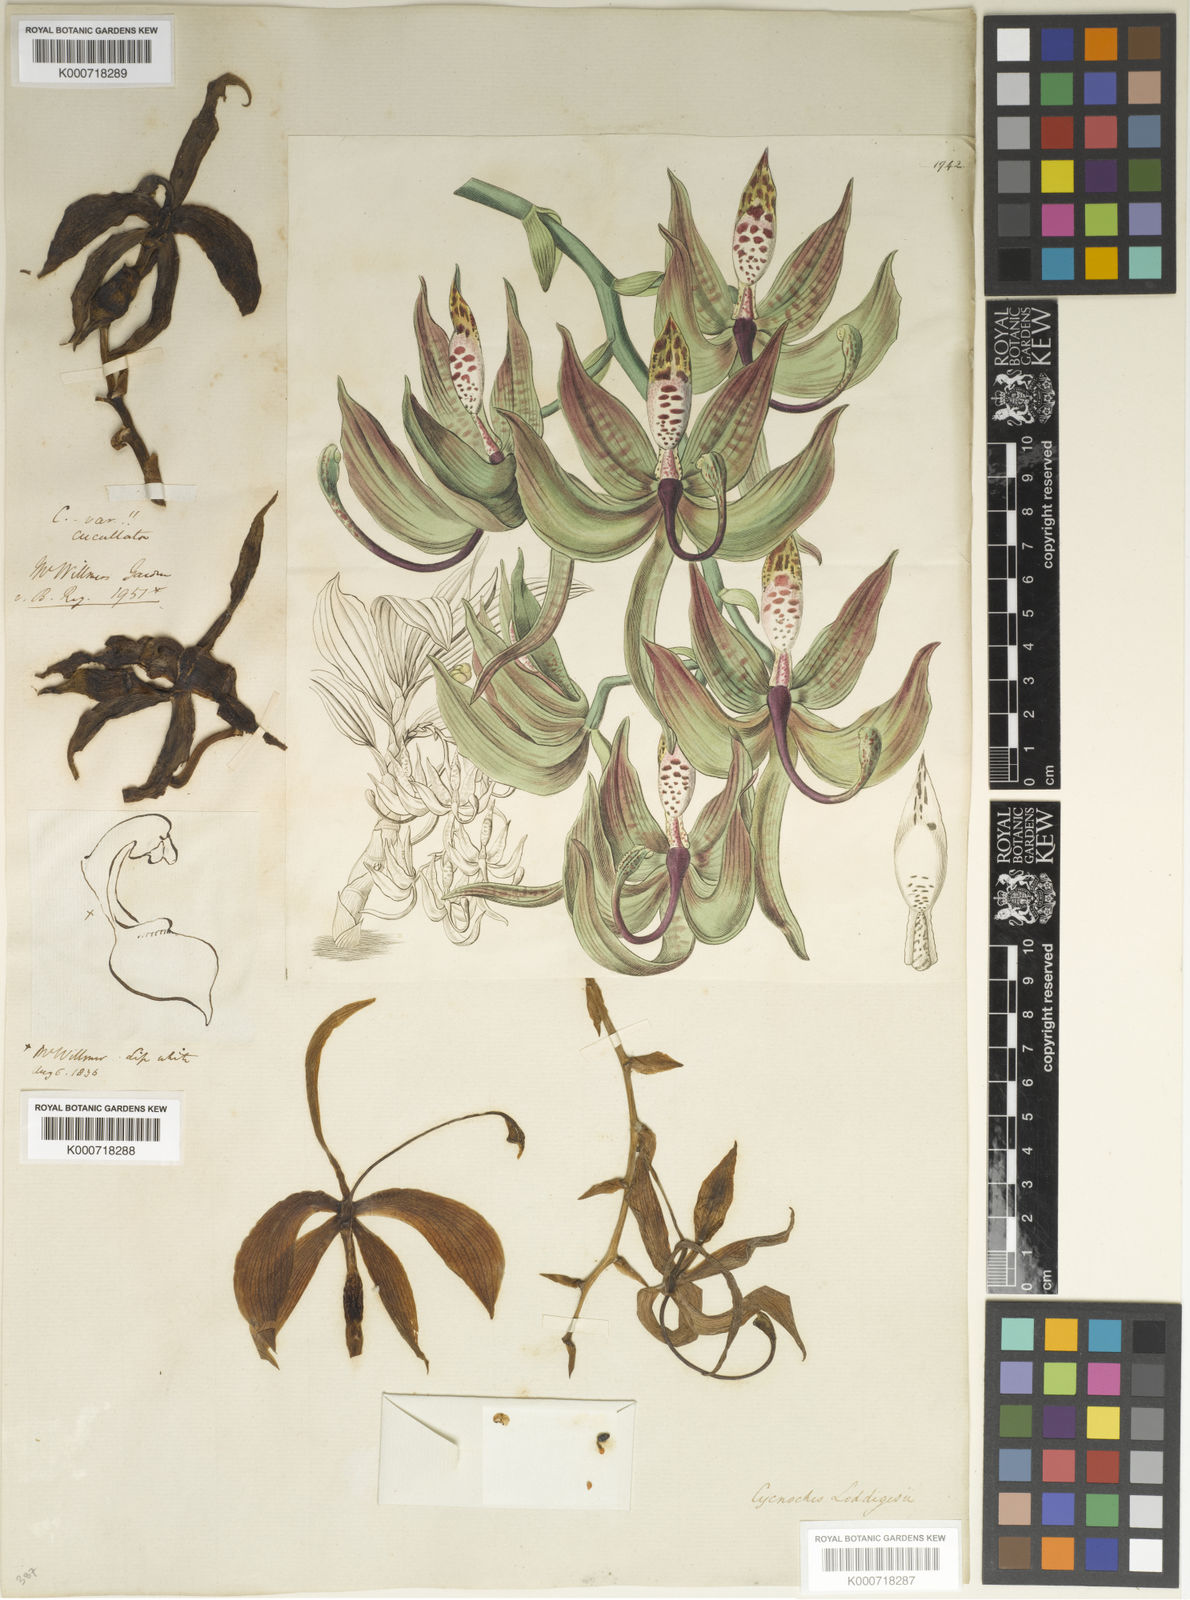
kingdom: Plantae
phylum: Tracheophyta
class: Liliopsida
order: Asparagales
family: Orchidaceae
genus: Cycnoches
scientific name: Cycnoches loddigesii
